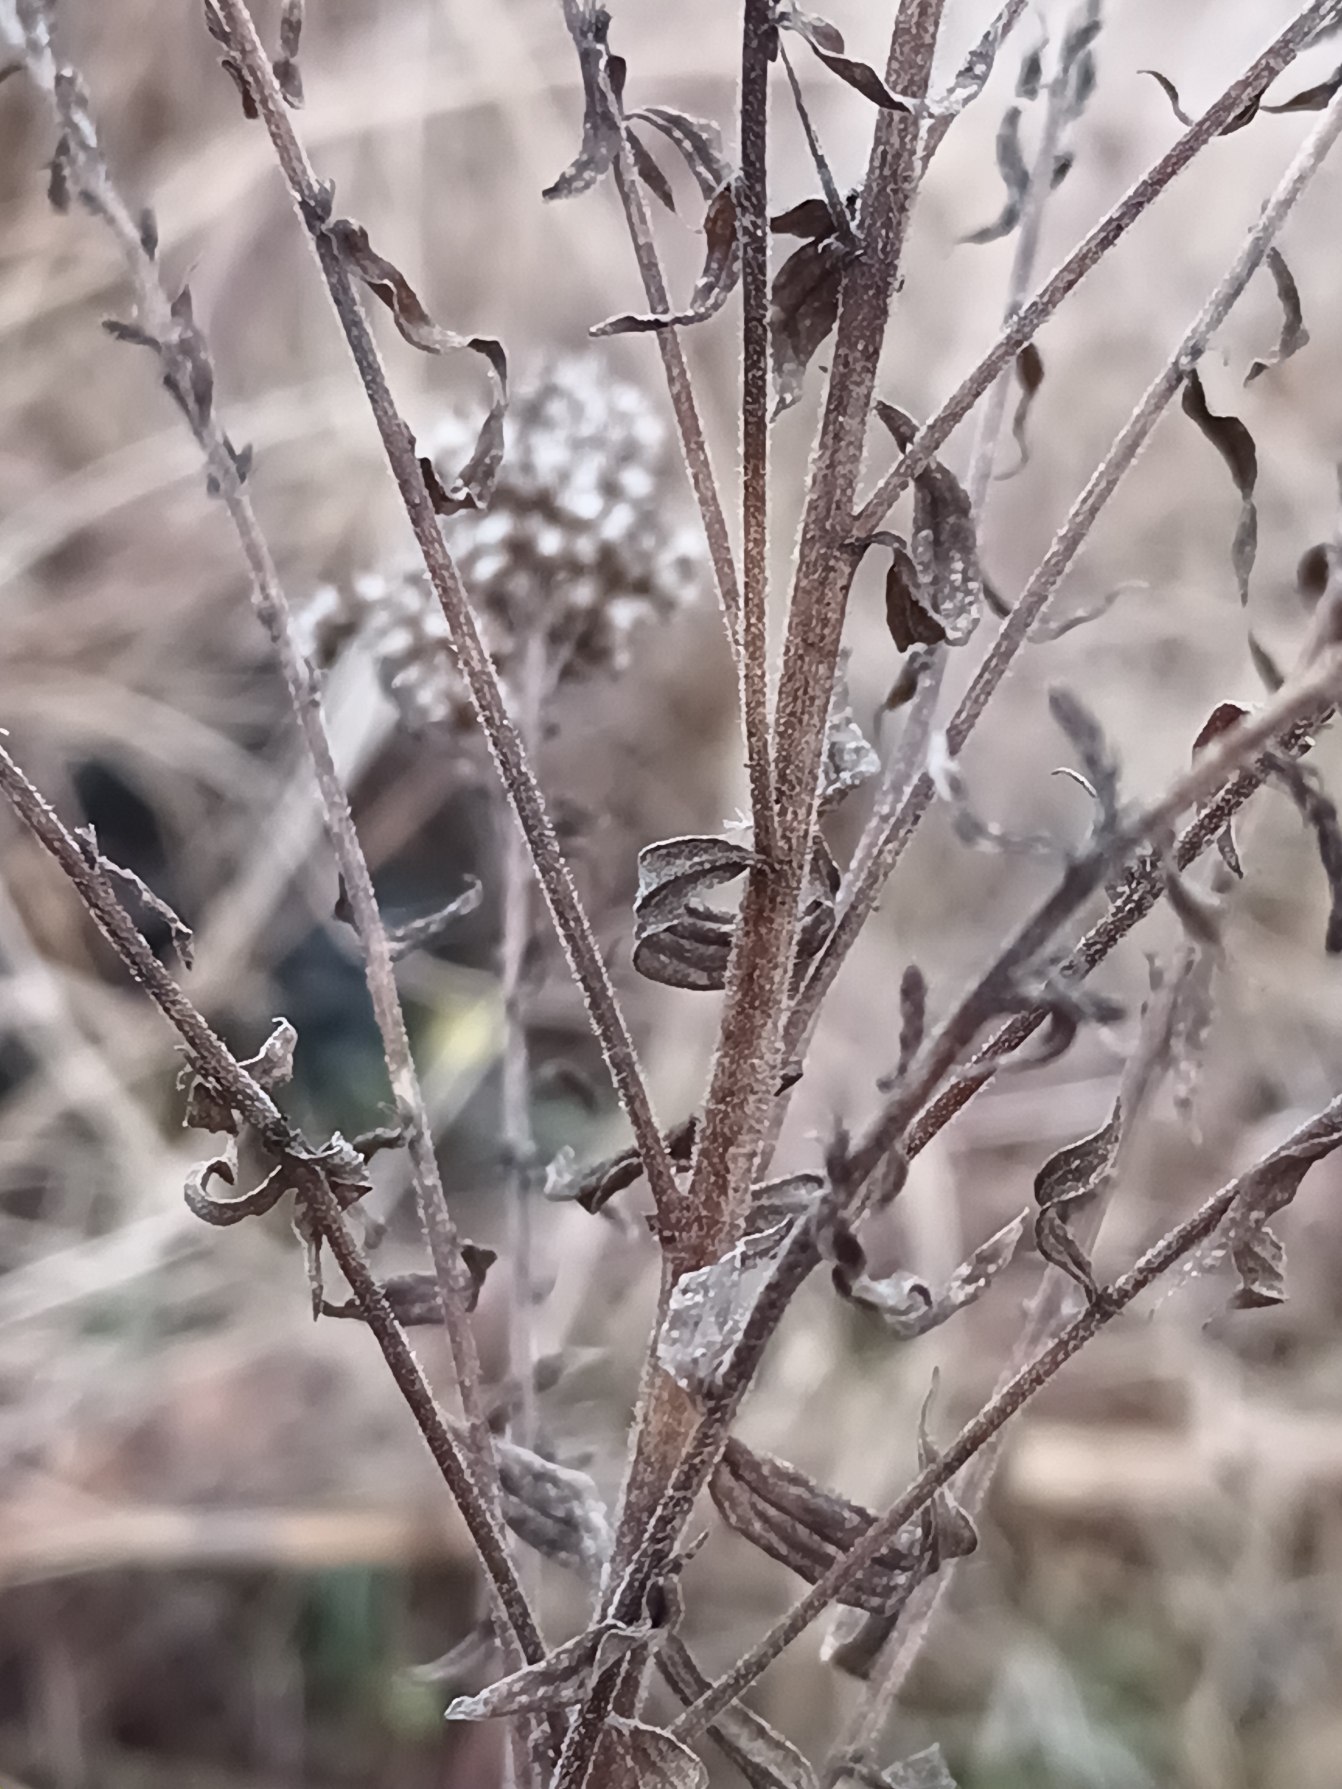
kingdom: Plantae
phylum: Tracheophyta
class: Magnoliopsida
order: Asterales
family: Asteraceae
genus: Solidago
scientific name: Solidago canadensis
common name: Kanadisk gyldenris
